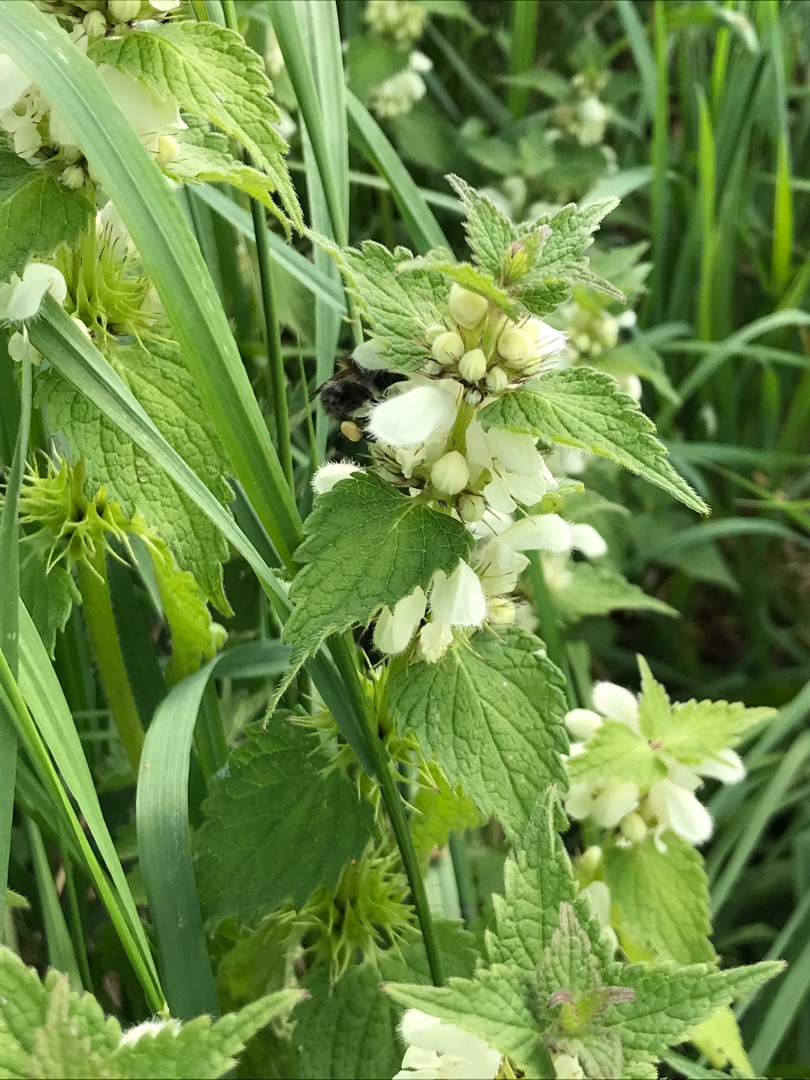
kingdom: Plantae
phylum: Tracheophyta
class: Magnoliopsida
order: Lamiales
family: Lamiaceae
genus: Lamium
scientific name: Lamium album
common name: Døvnælde
